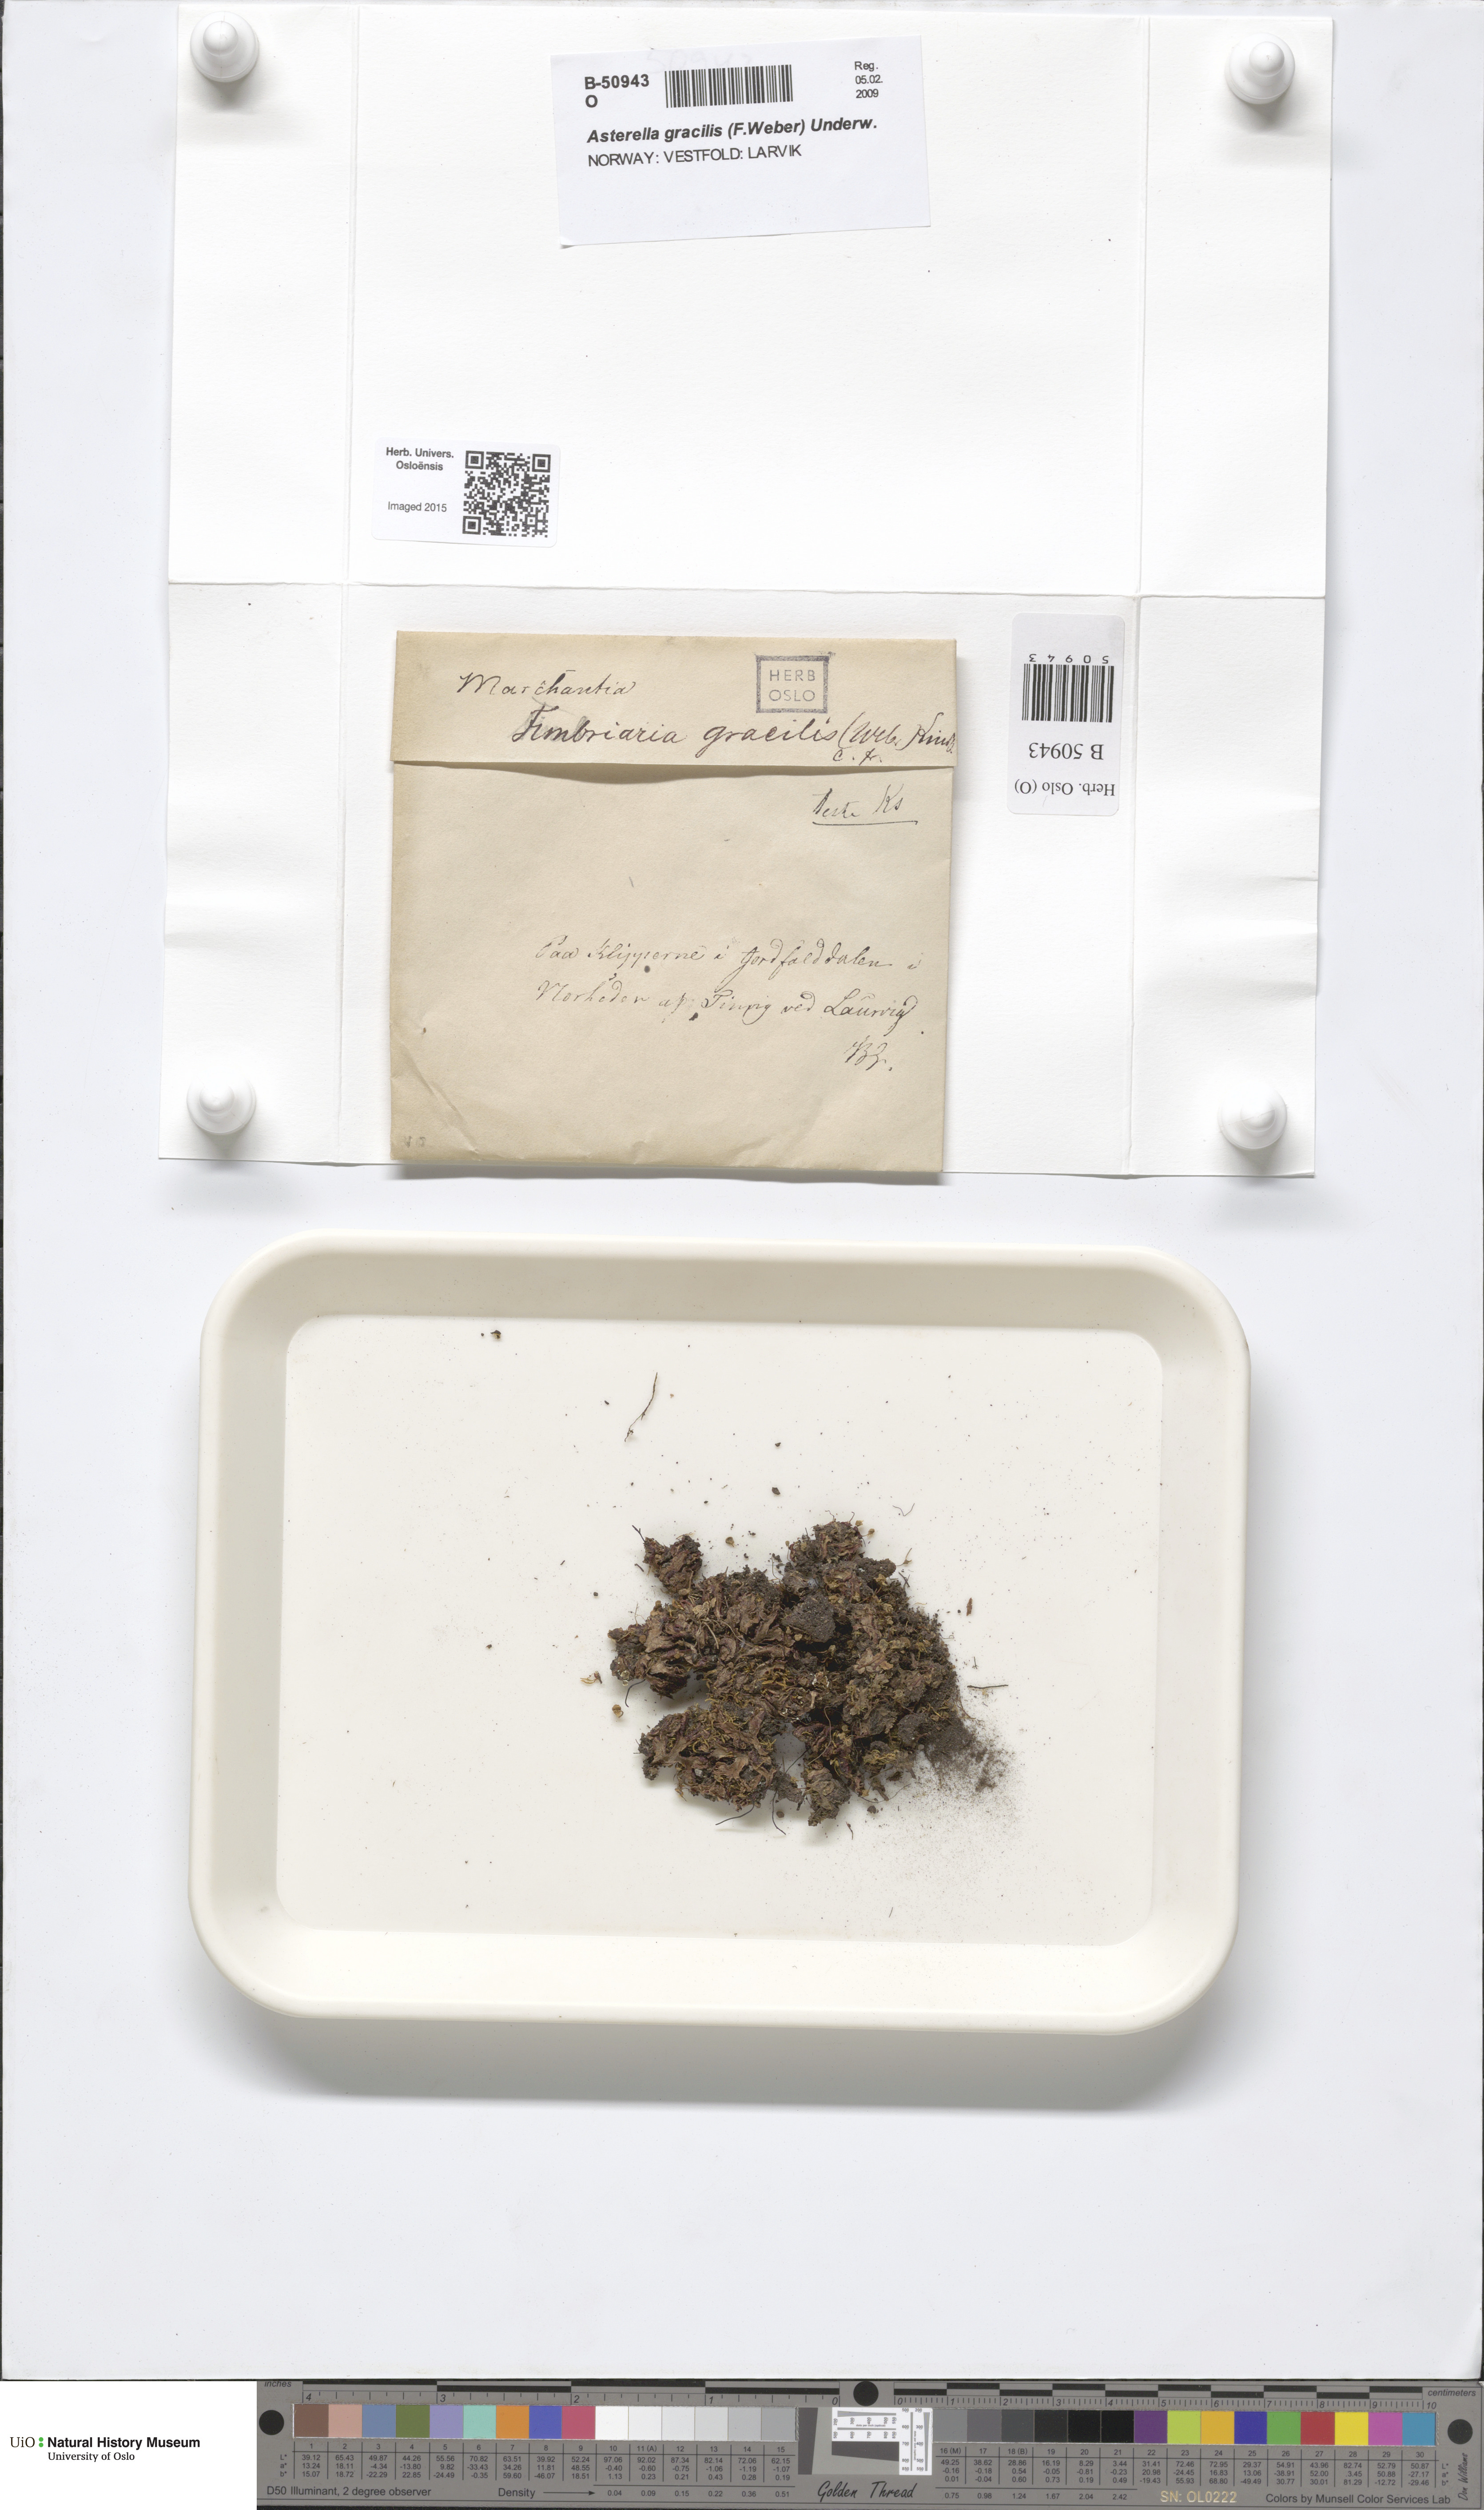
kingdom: Plantae
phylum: Marchantiophyta
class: Marchantiopsida
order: Marchantiales
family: Aytoniaceae
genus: Mannia
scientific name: Mannia gracilis
